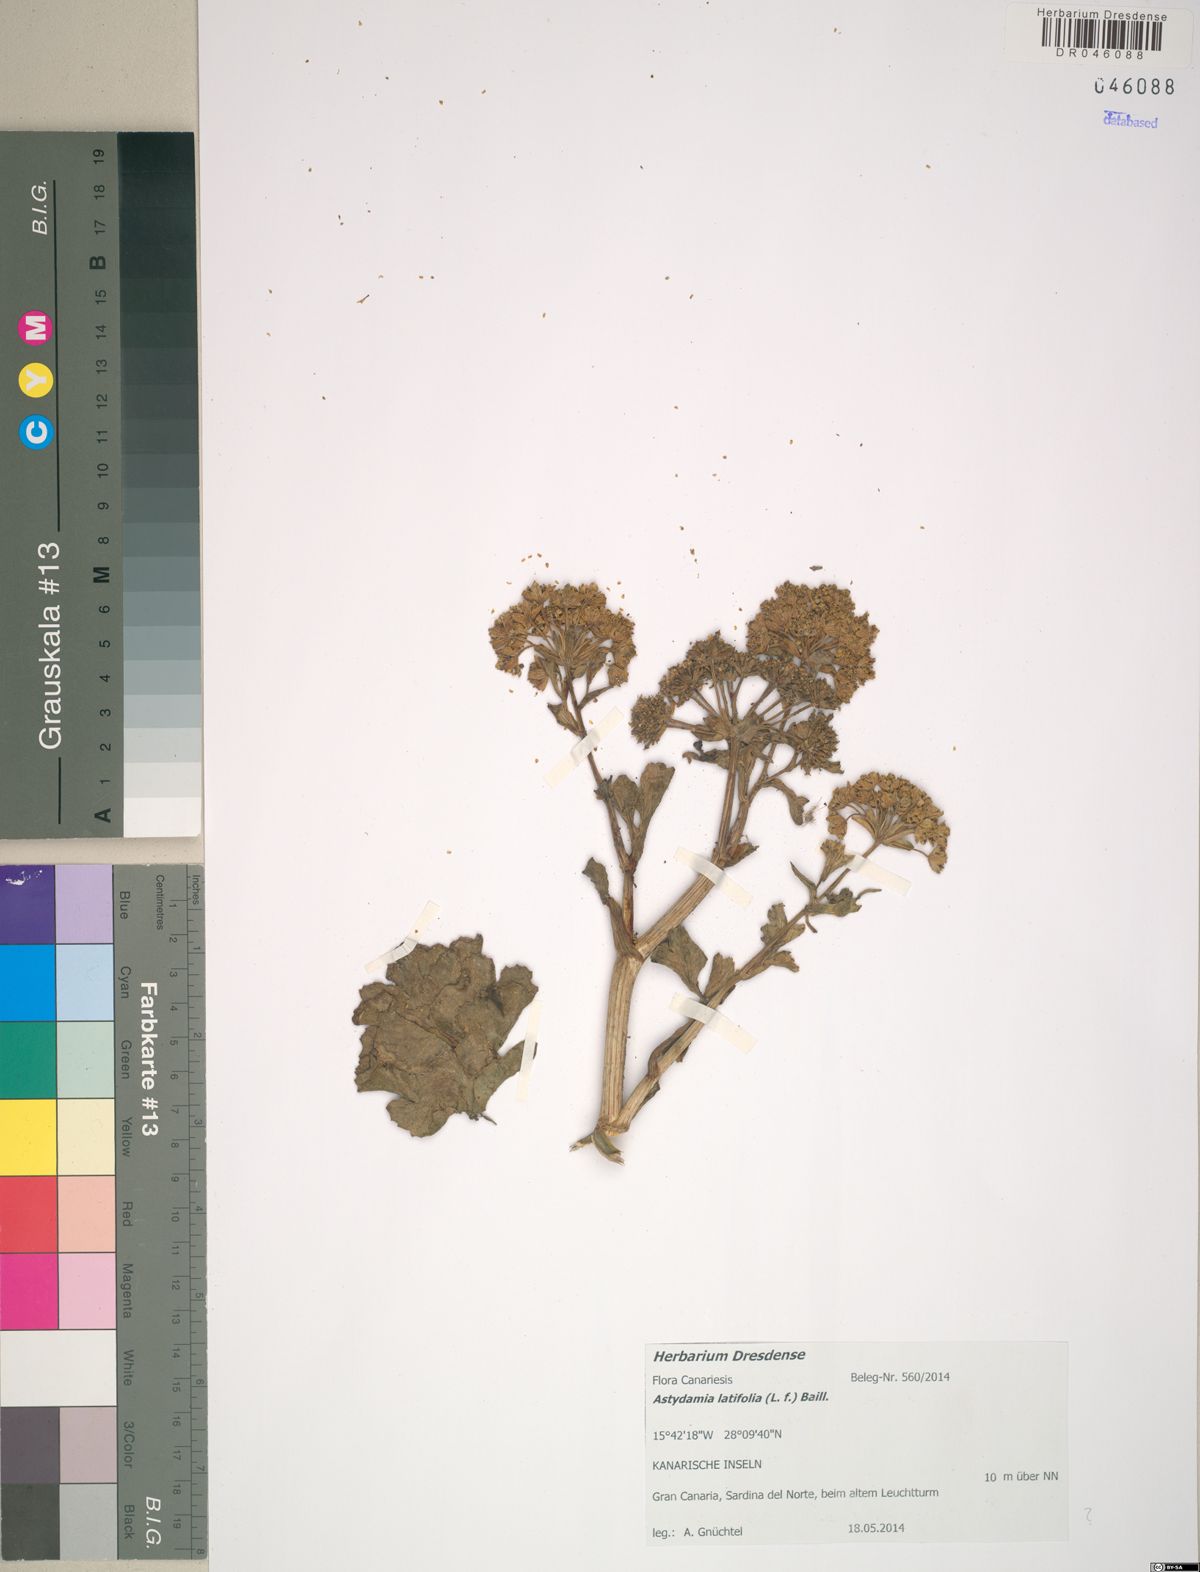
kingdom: Plantae
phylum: Tracheophyta
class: Magnoliopsida
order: Apiales
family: Apiaceae
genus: Astydamia
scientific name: Astydamia latifolia
